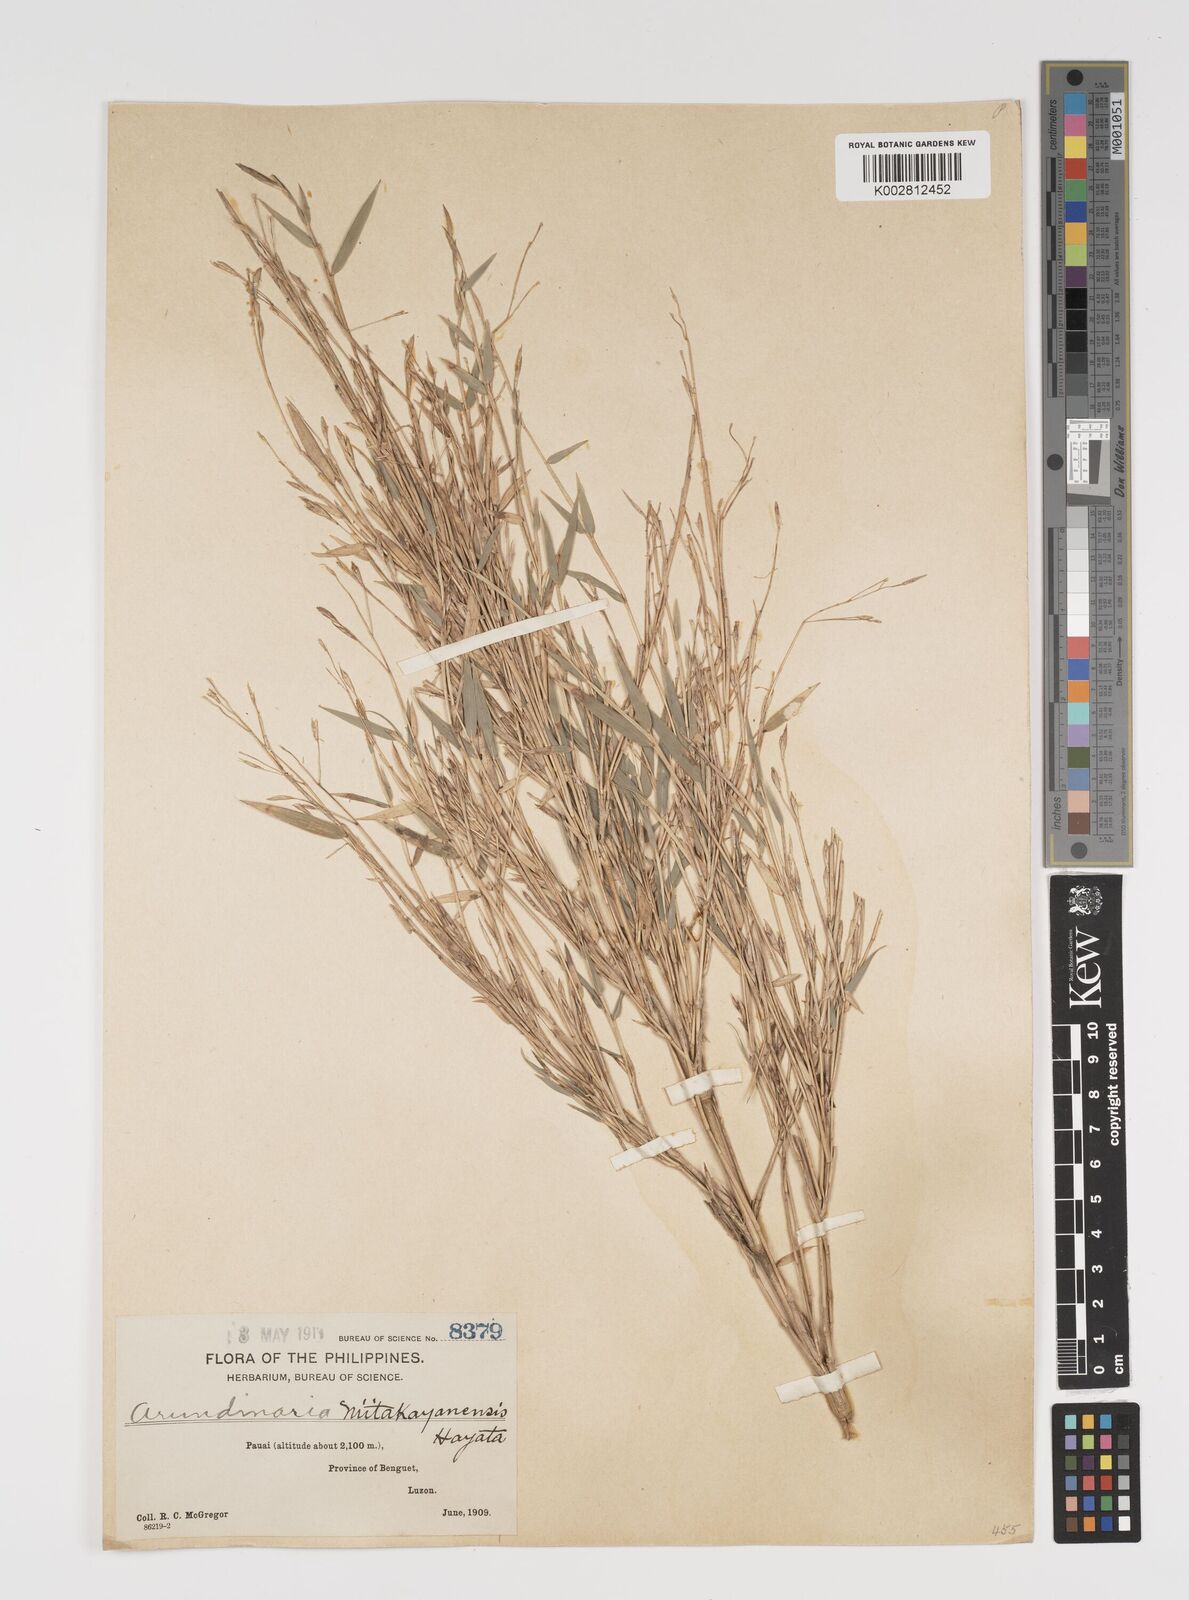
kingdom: Plantae
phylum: Tracheophyta
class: Liliopsida
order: Poales
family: Poaceae
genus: Yushania
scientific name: Yushania niitakayamensis
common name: Yushan cane
